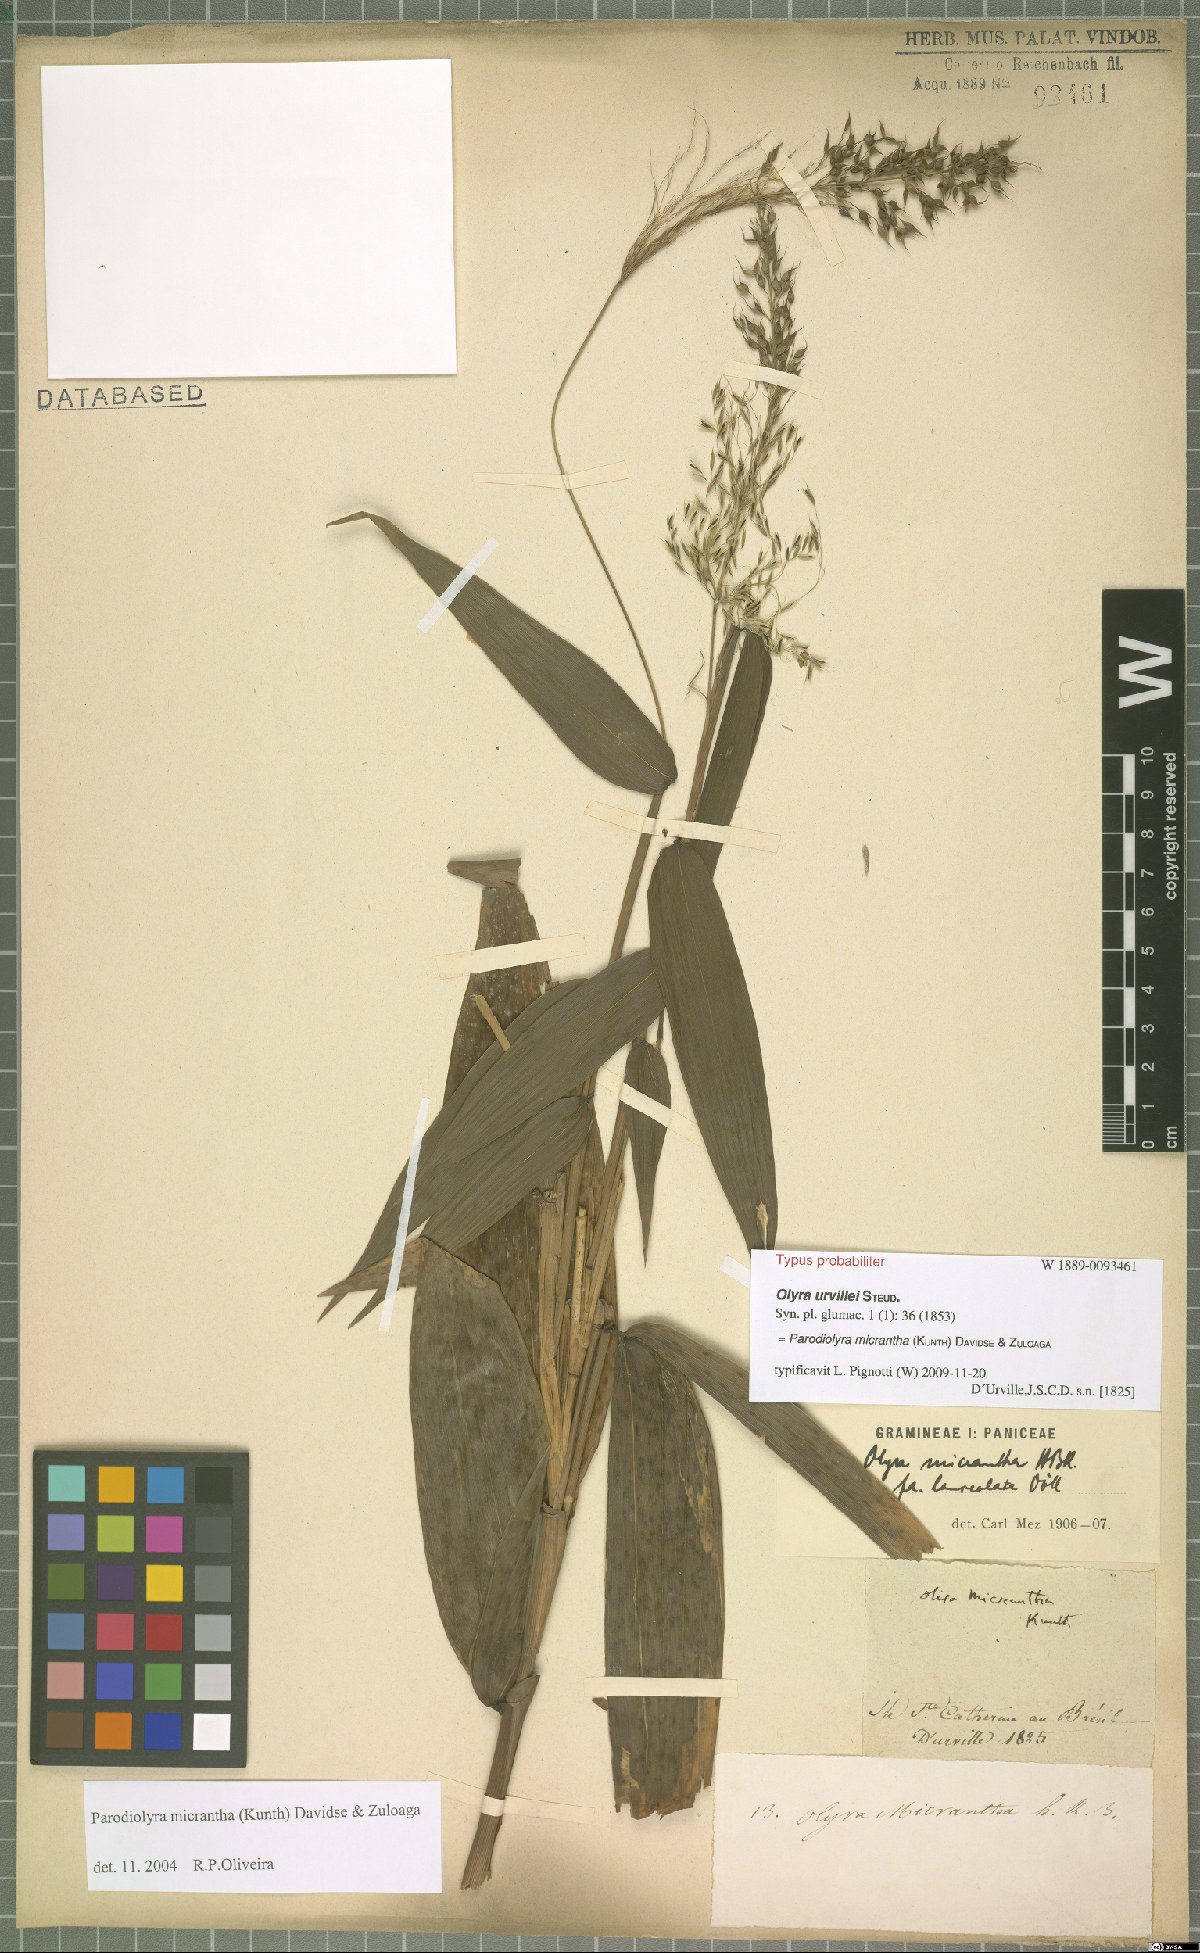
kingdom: Plantae
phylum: Tracheophyta
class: Liliopsida
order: Poales
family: Poaceae
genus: Taquara
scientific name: Taquara micrantha
